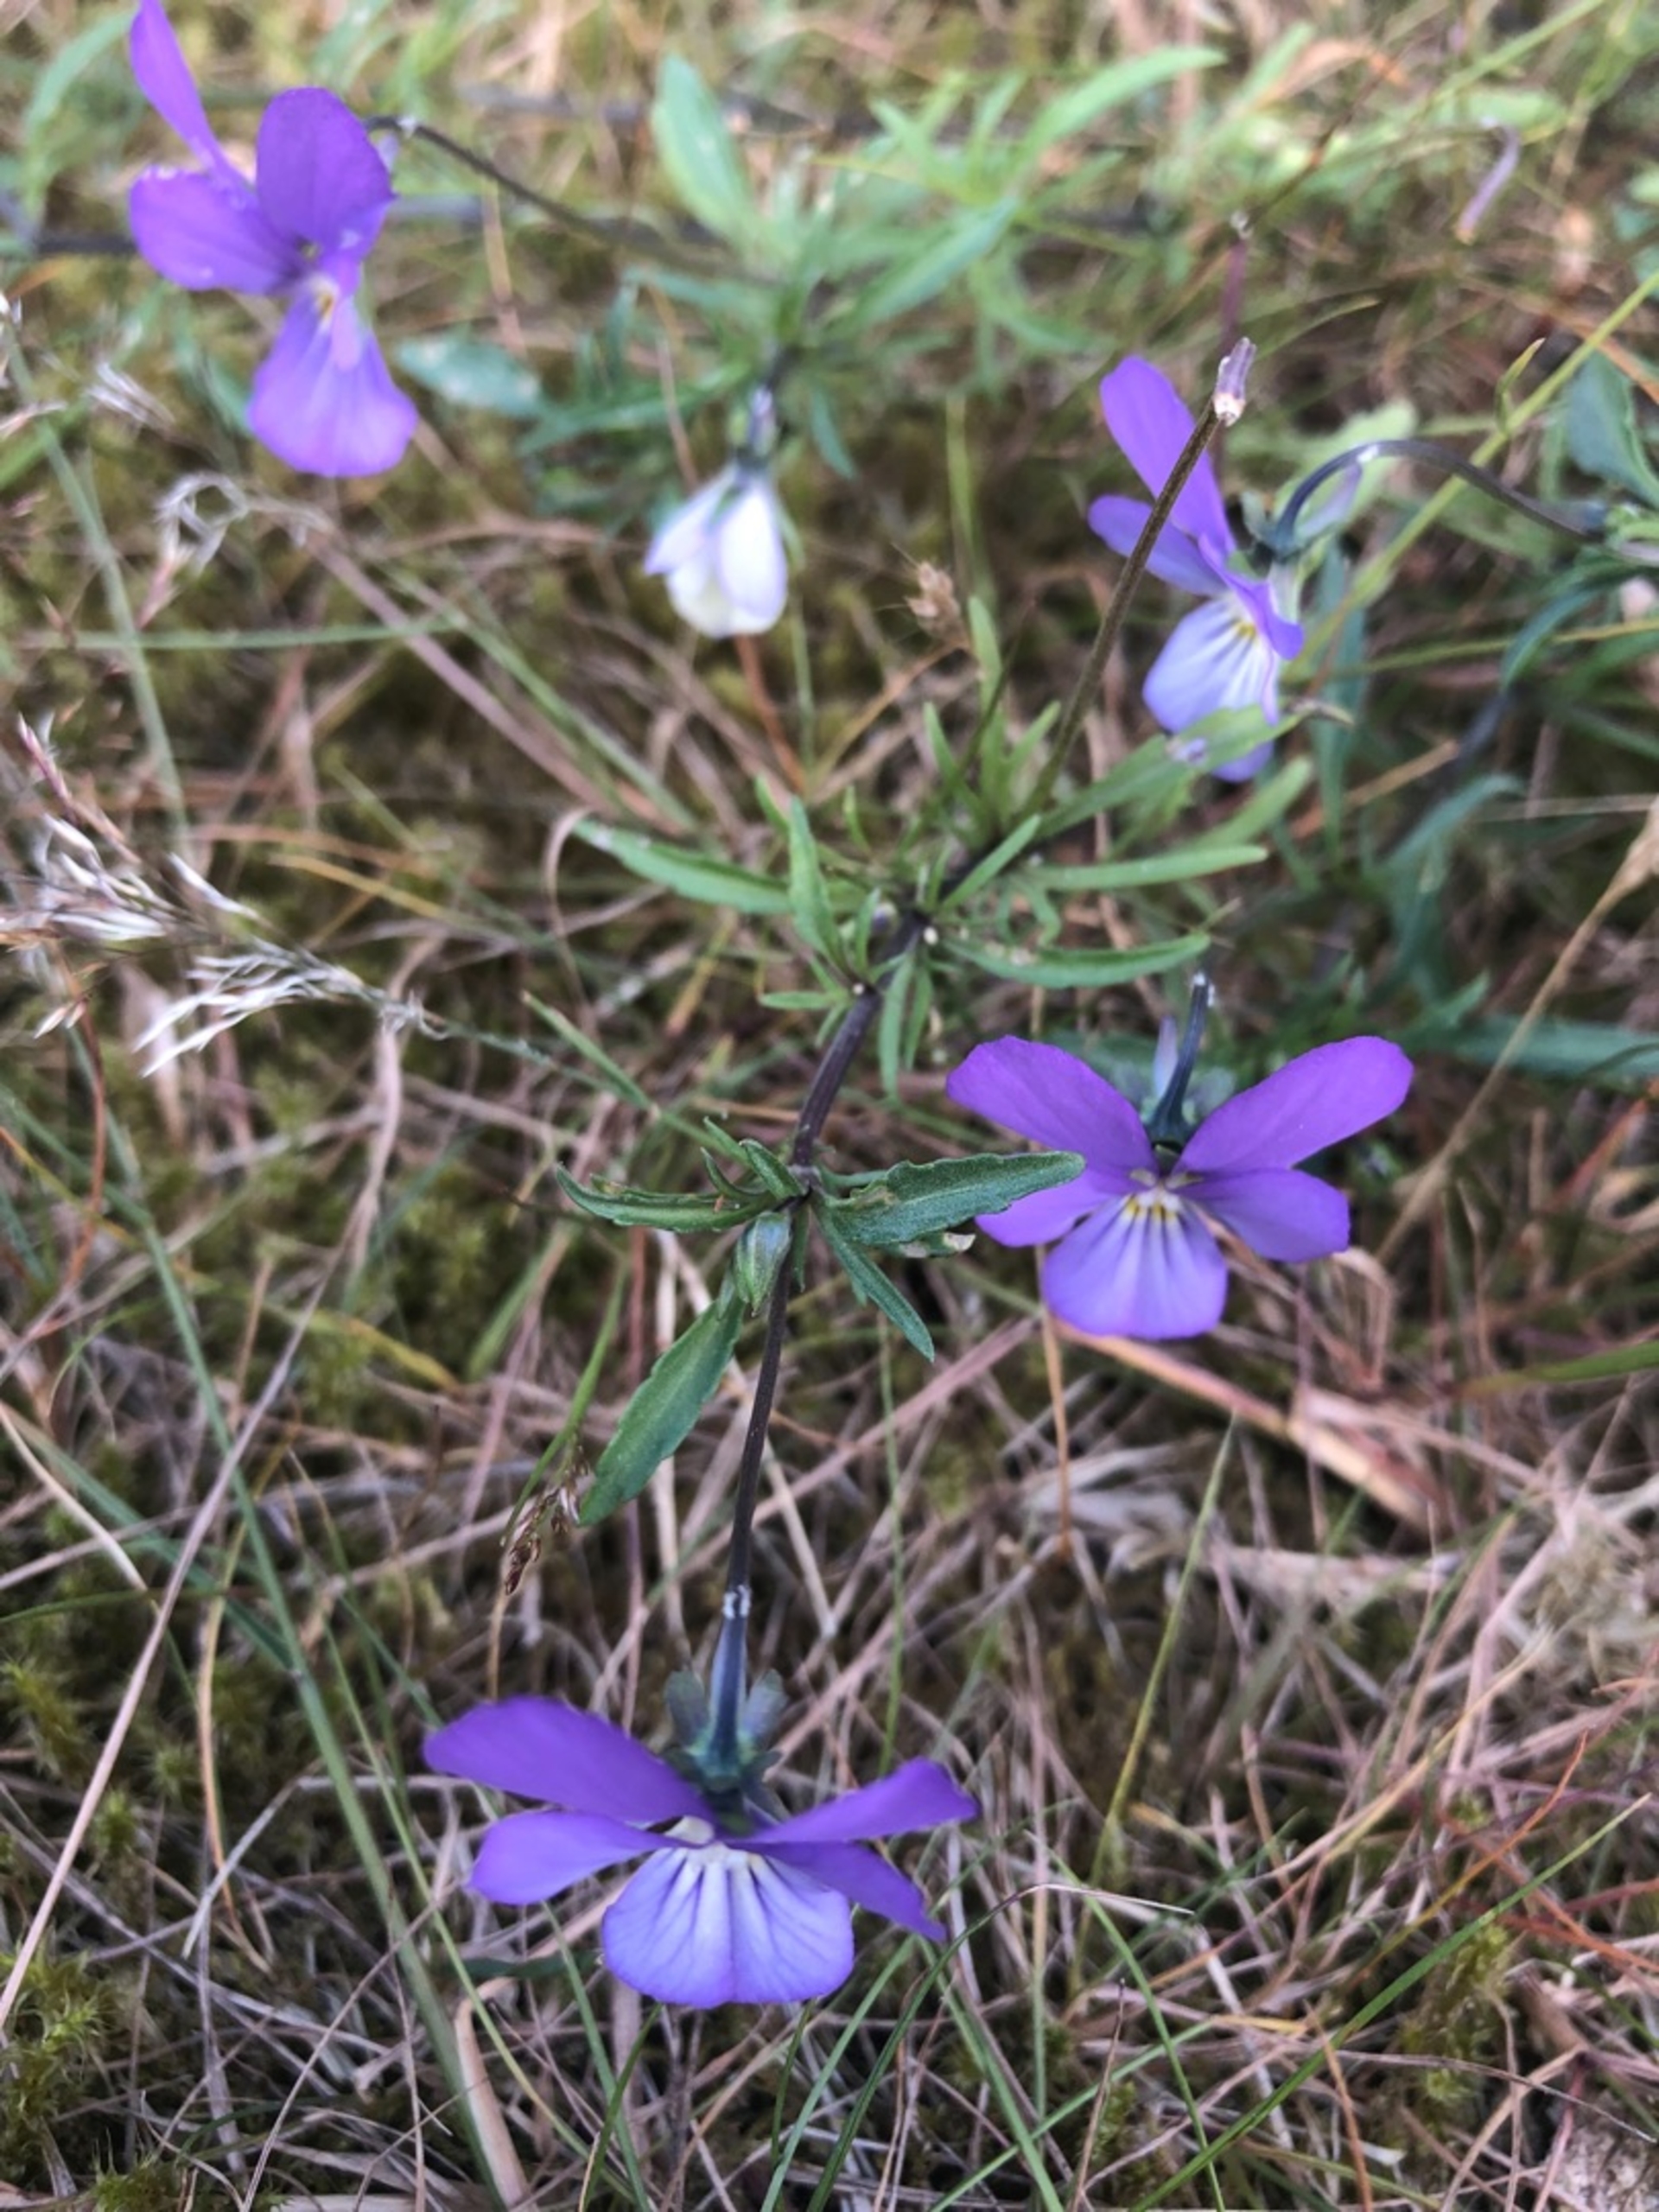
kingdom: Plantae
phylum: Tracheophyta
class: Magnoliopsida
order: Malpighiales
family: Violaceae
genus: Viola
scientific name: Viola tricolor
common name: Stedmoderblomst
